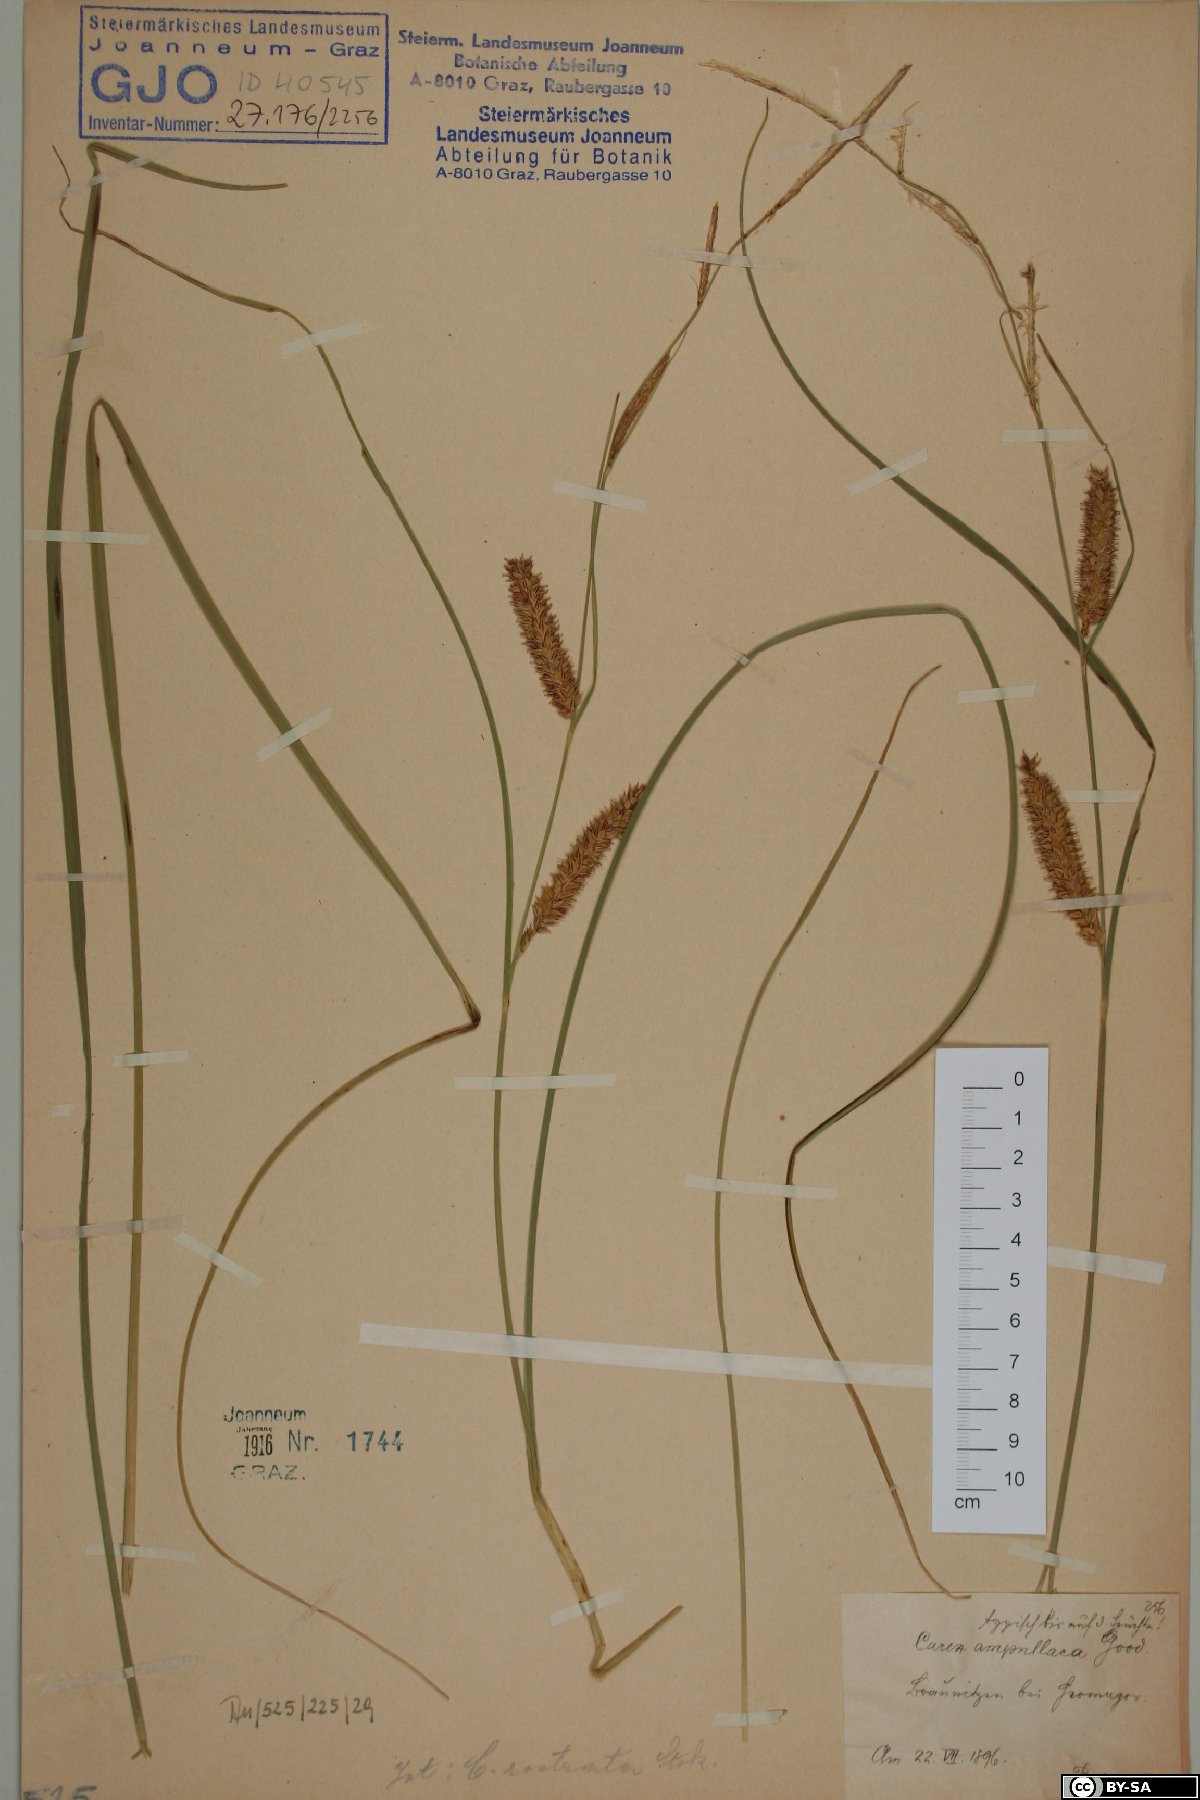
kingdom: Plantae
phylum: Tracheophyta
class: Liliopsida
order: Poales
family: Cyperaceae
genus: Carex
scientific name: Carex rostrata
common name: Bottle sedge
